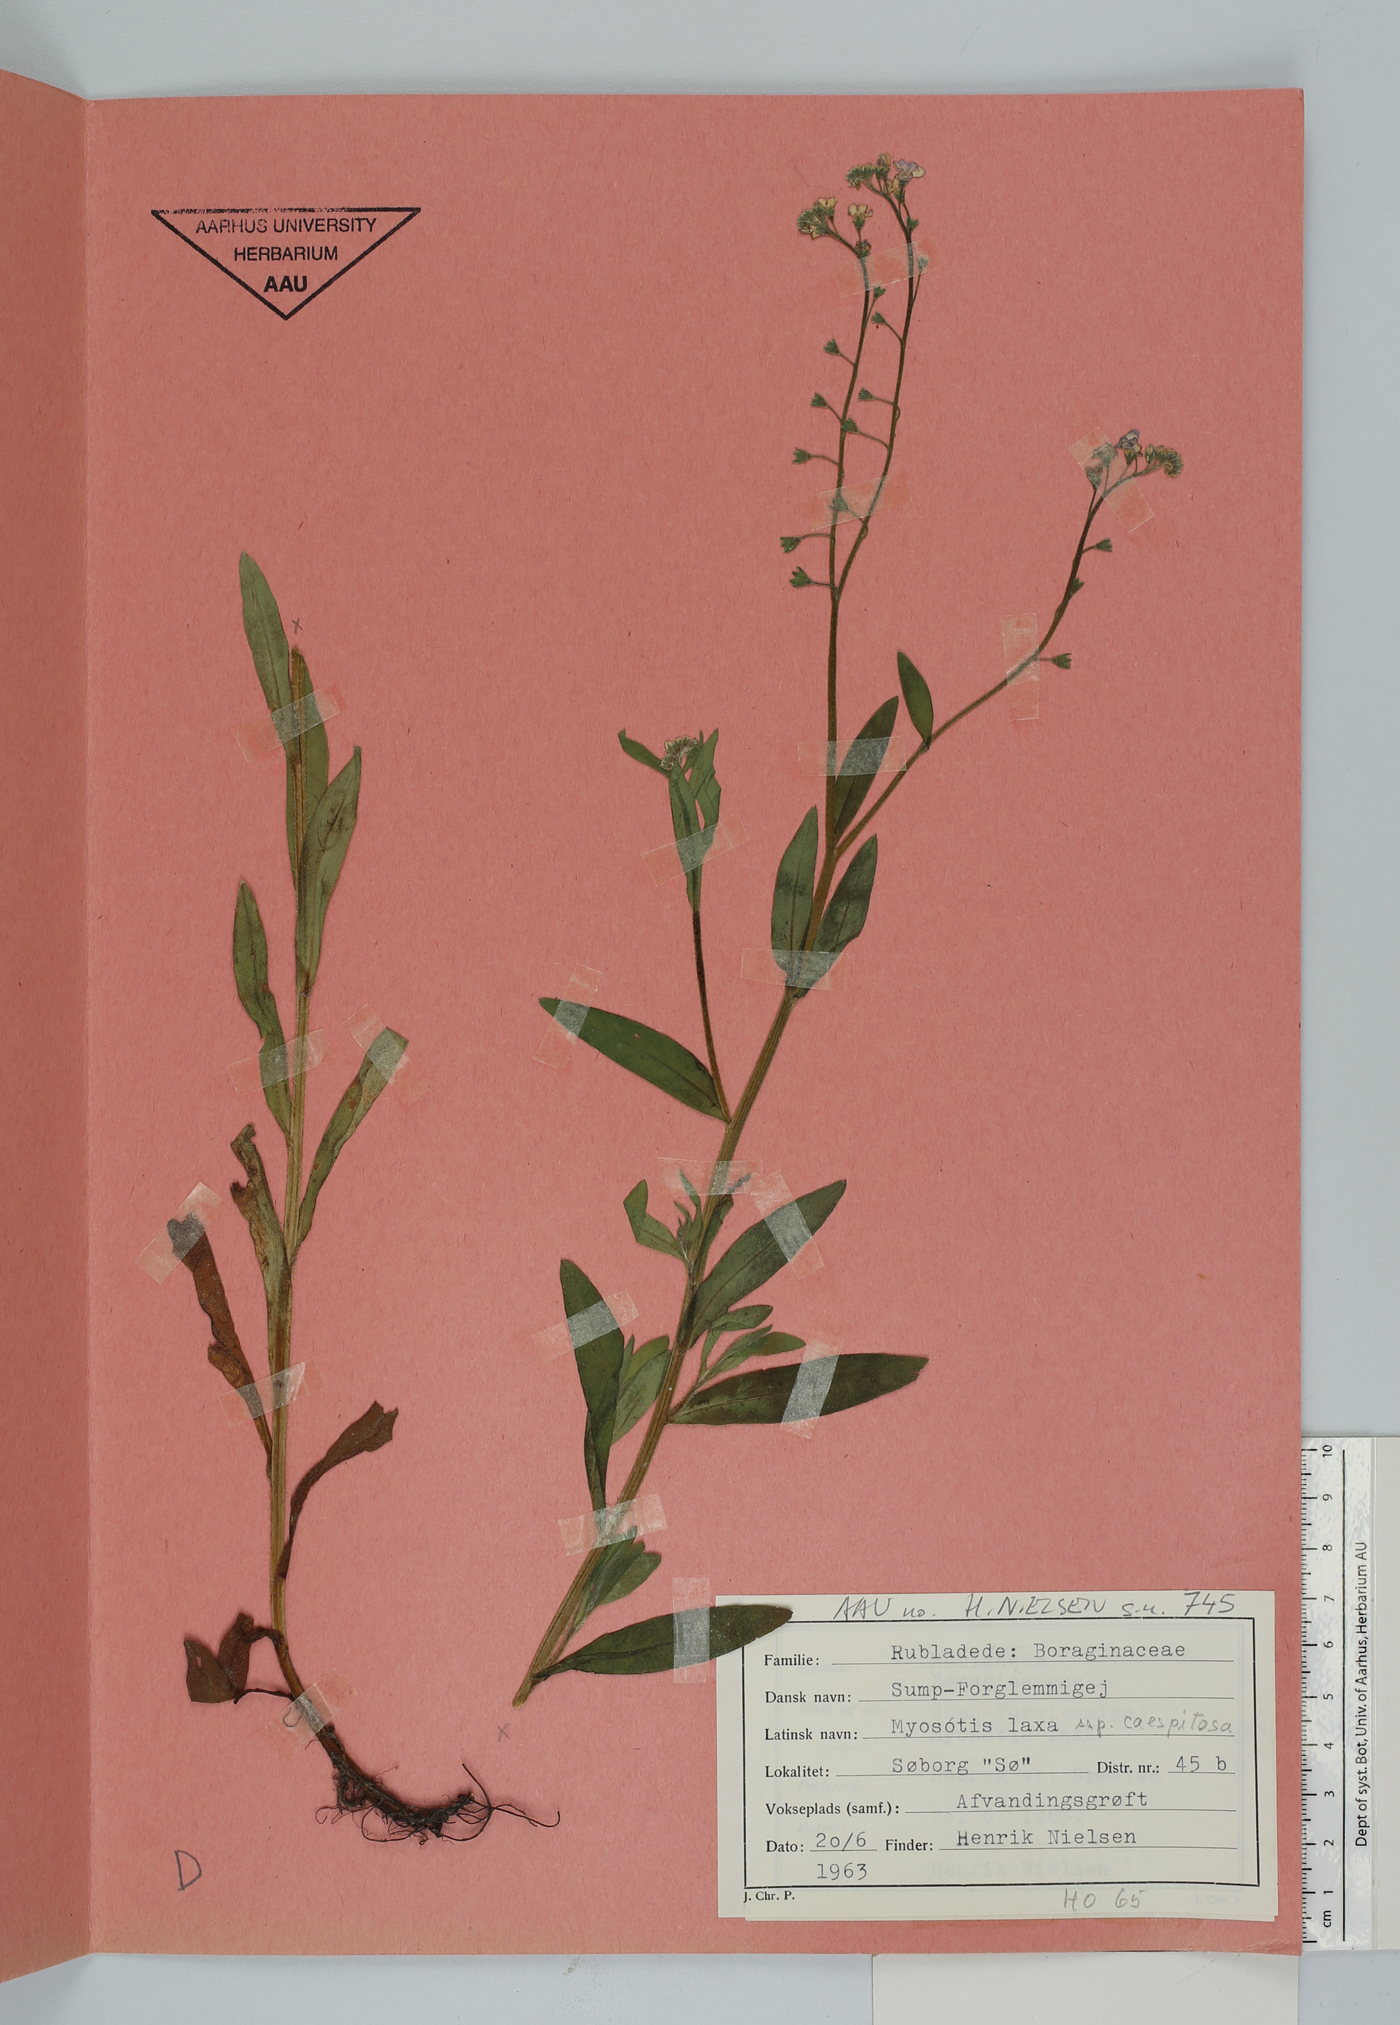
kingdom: Plantae
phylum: Tracheophyta
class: Magnoliopsida
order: Boraginales
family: Boraginaceae
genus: Myosotis
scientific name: Myosotis laxa
